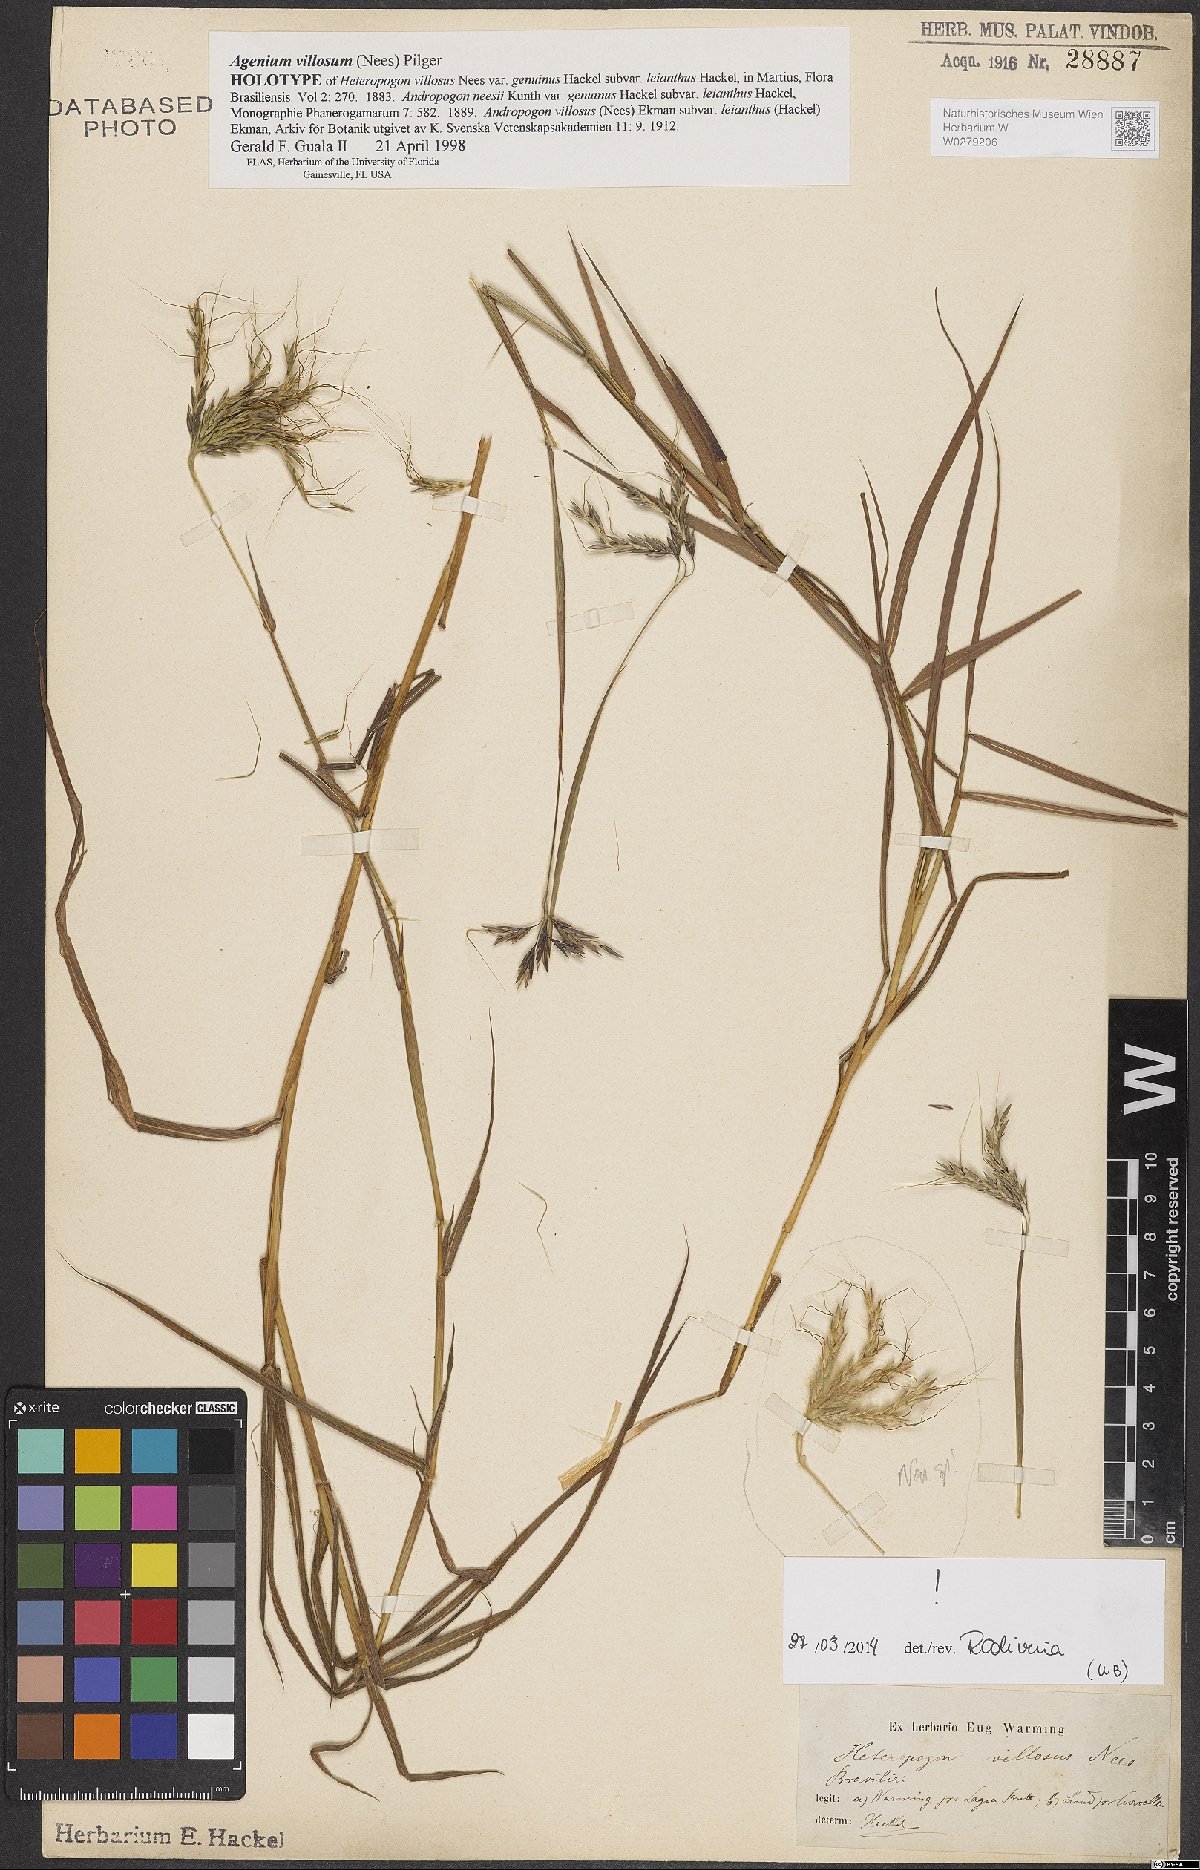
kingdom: Plantae
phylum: Tracheophyta
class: Liliopsida
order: Poales
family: Poaceae
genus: Agenium
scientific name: Agenium villosum
